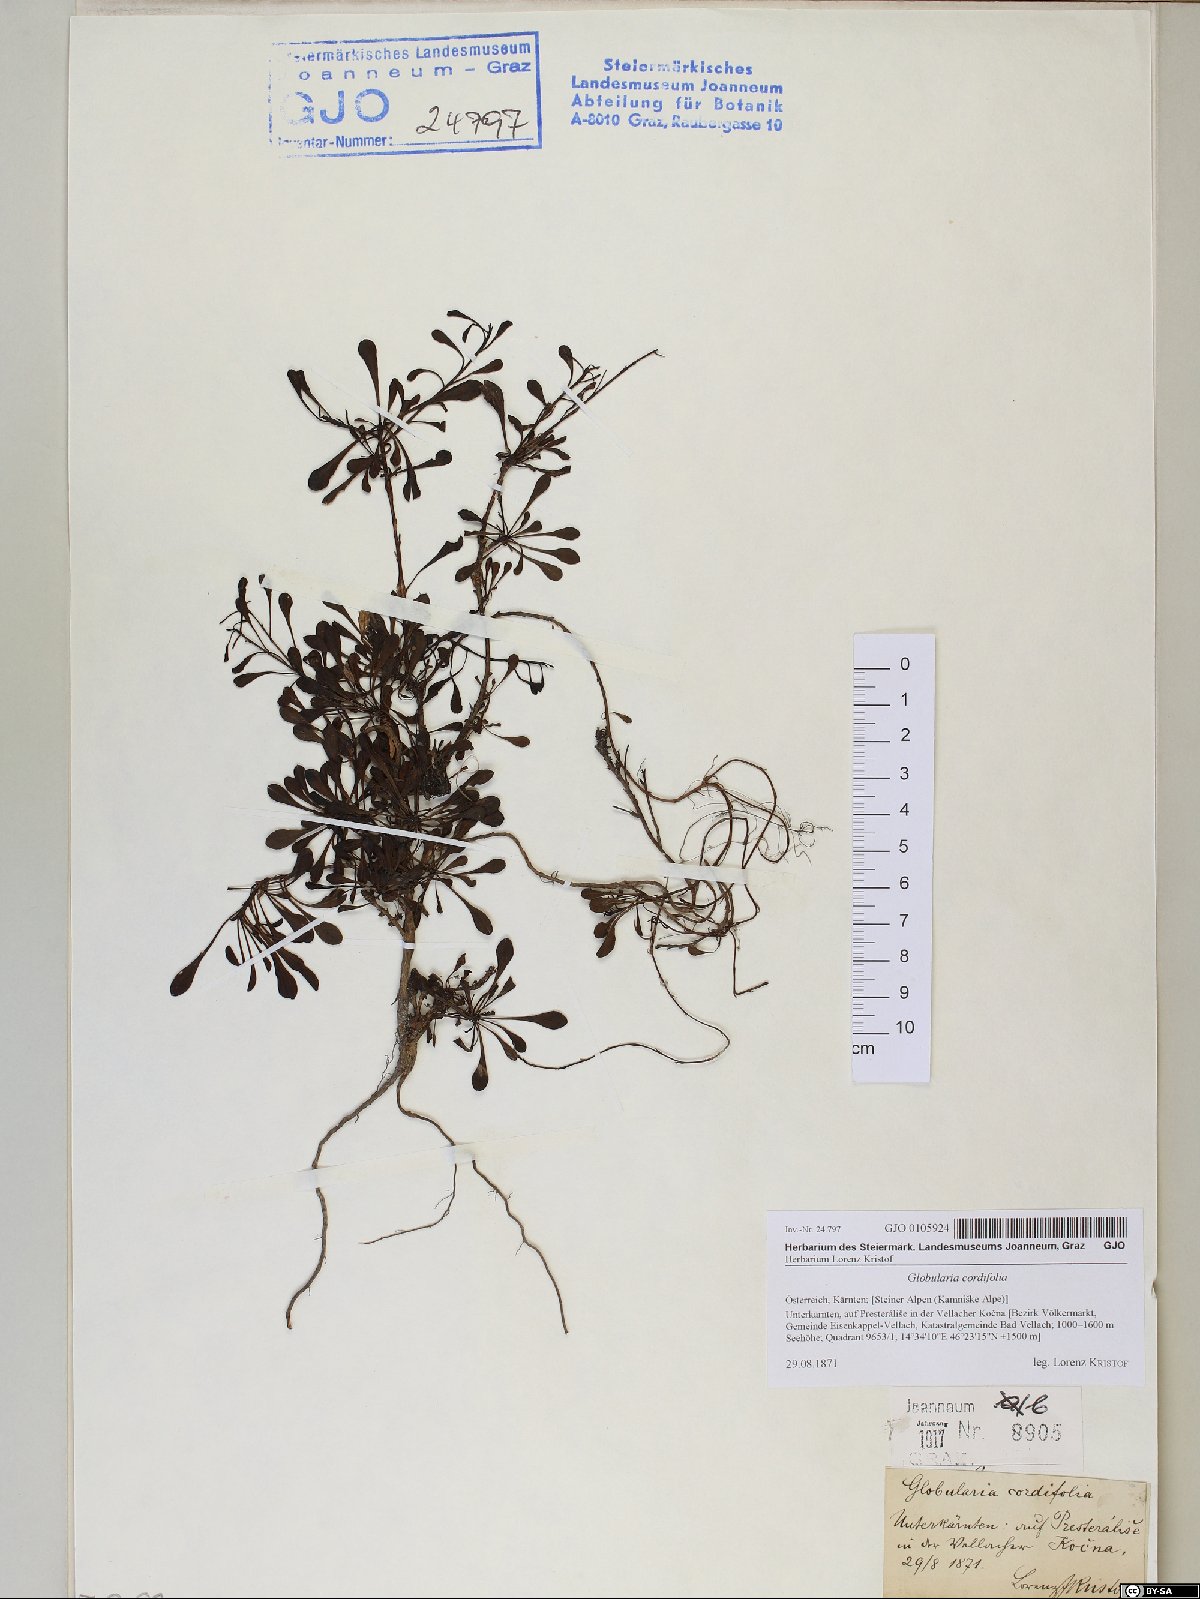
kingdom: Plantae
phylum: Tracheophyta
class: Magnoliopsida
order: Lamiales
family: Plantaginaceae
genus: Globularia
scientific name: Globularia cordifolia
